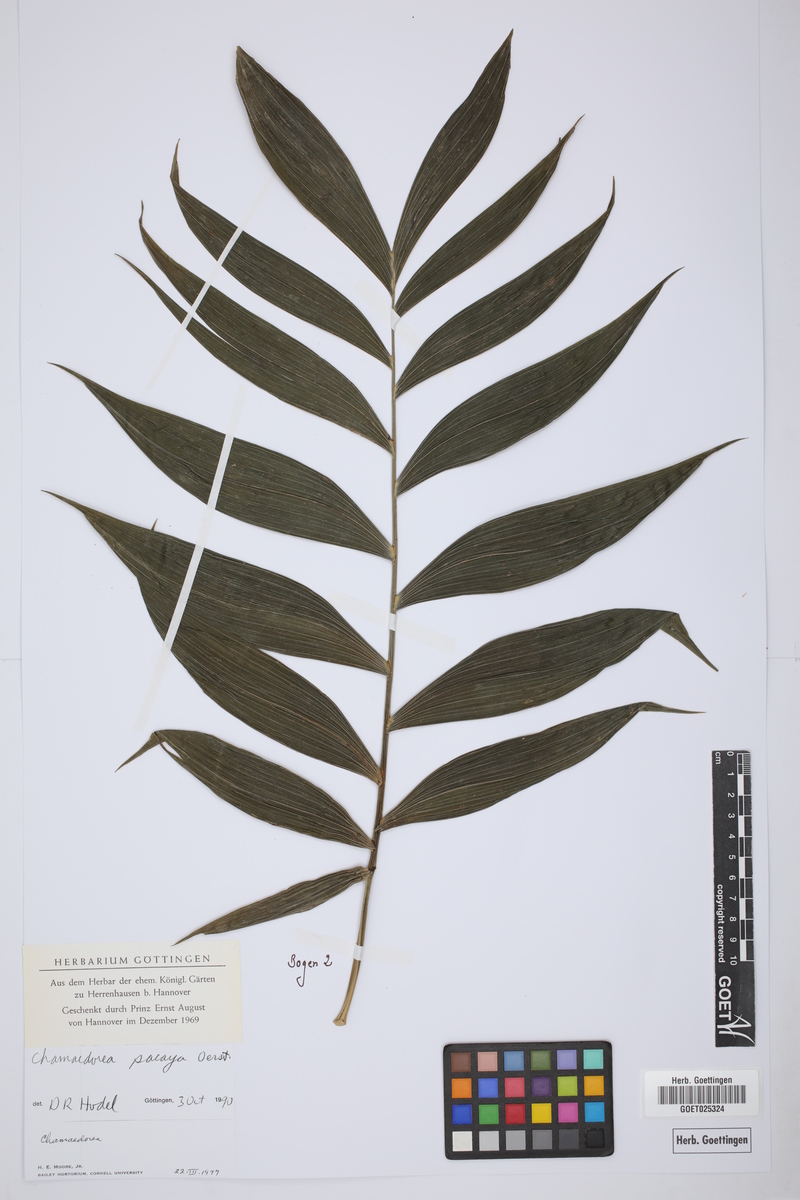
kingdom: Plantae
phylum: Tracheophyta
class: Liliopsida
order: Arecales
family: Arecaceae
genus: Chamaedorea
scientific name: Chamaedorea pinnatifrons
